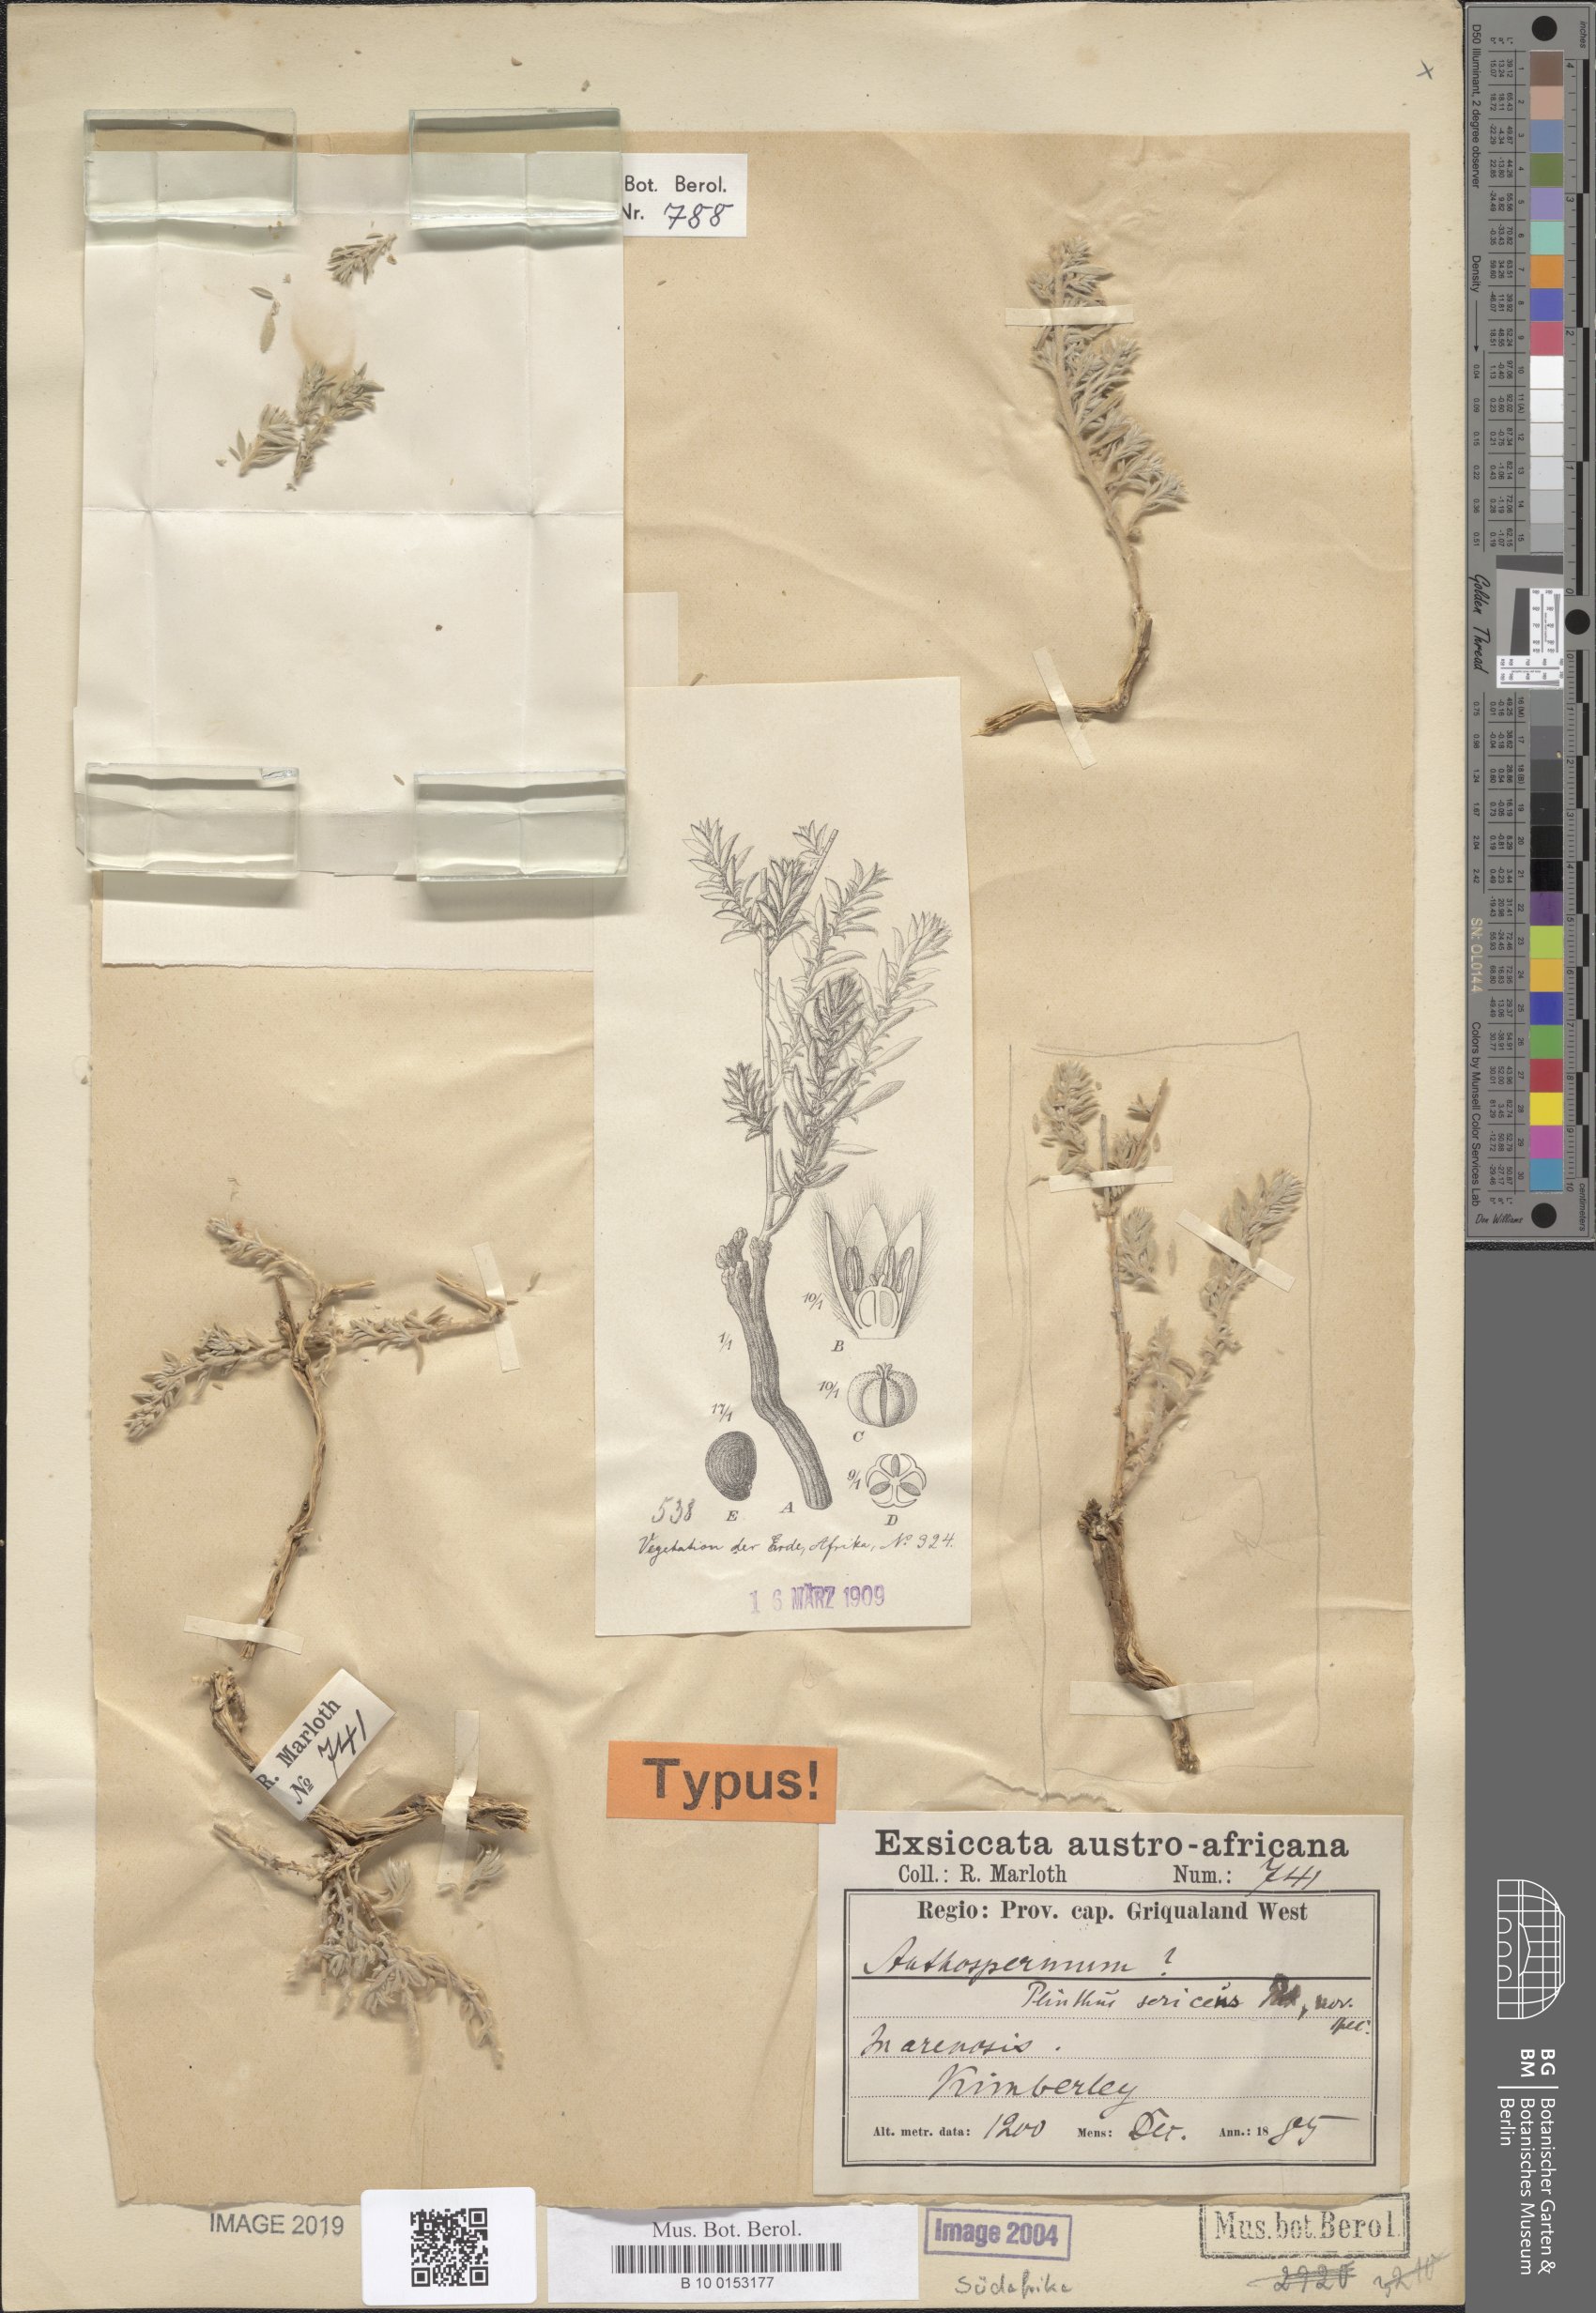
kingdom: Plantae
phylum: Tracheophyta
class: Magnoliopsida
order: Caryophyllales
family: Aizoaceae
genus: Aizoon
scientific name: Aizoon sericeum
